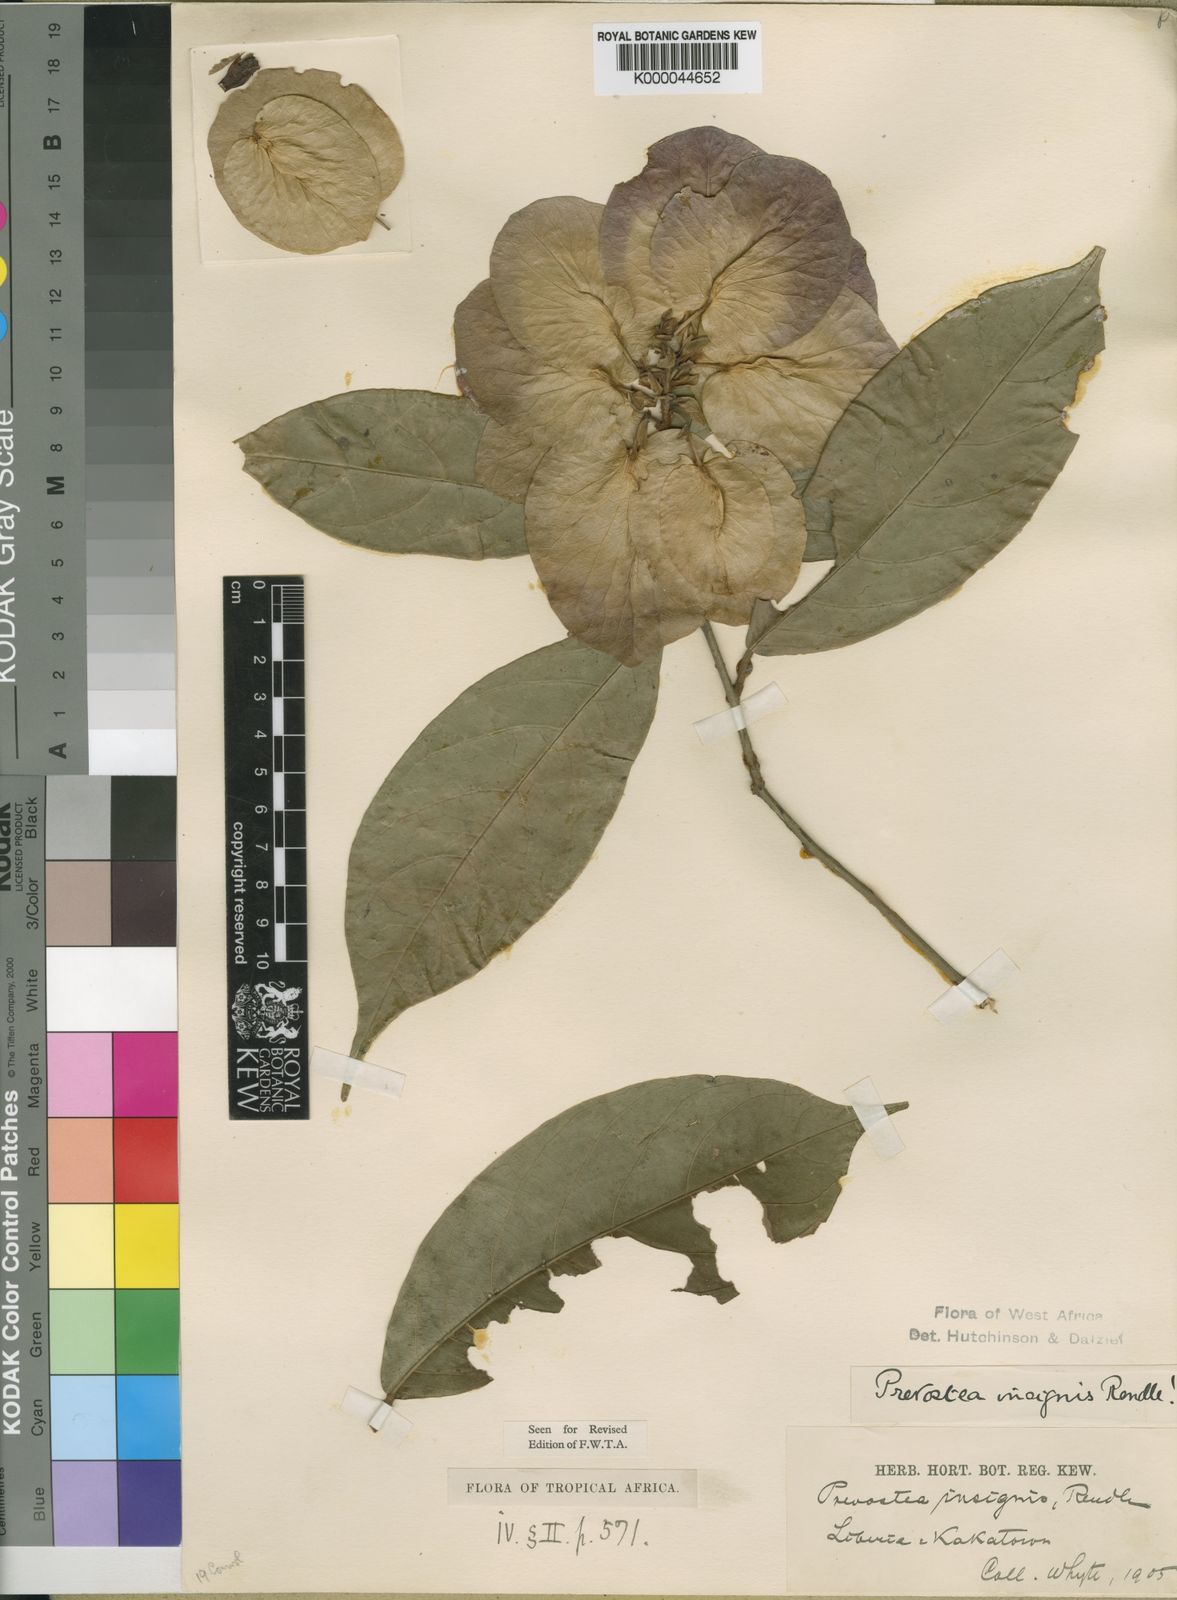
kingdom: Plantae
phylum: Tracheophyta
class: Magnoliopsida
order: Solanales
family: Convolvulaceae
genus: Calycobolus
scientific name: Calycobolus insignis
